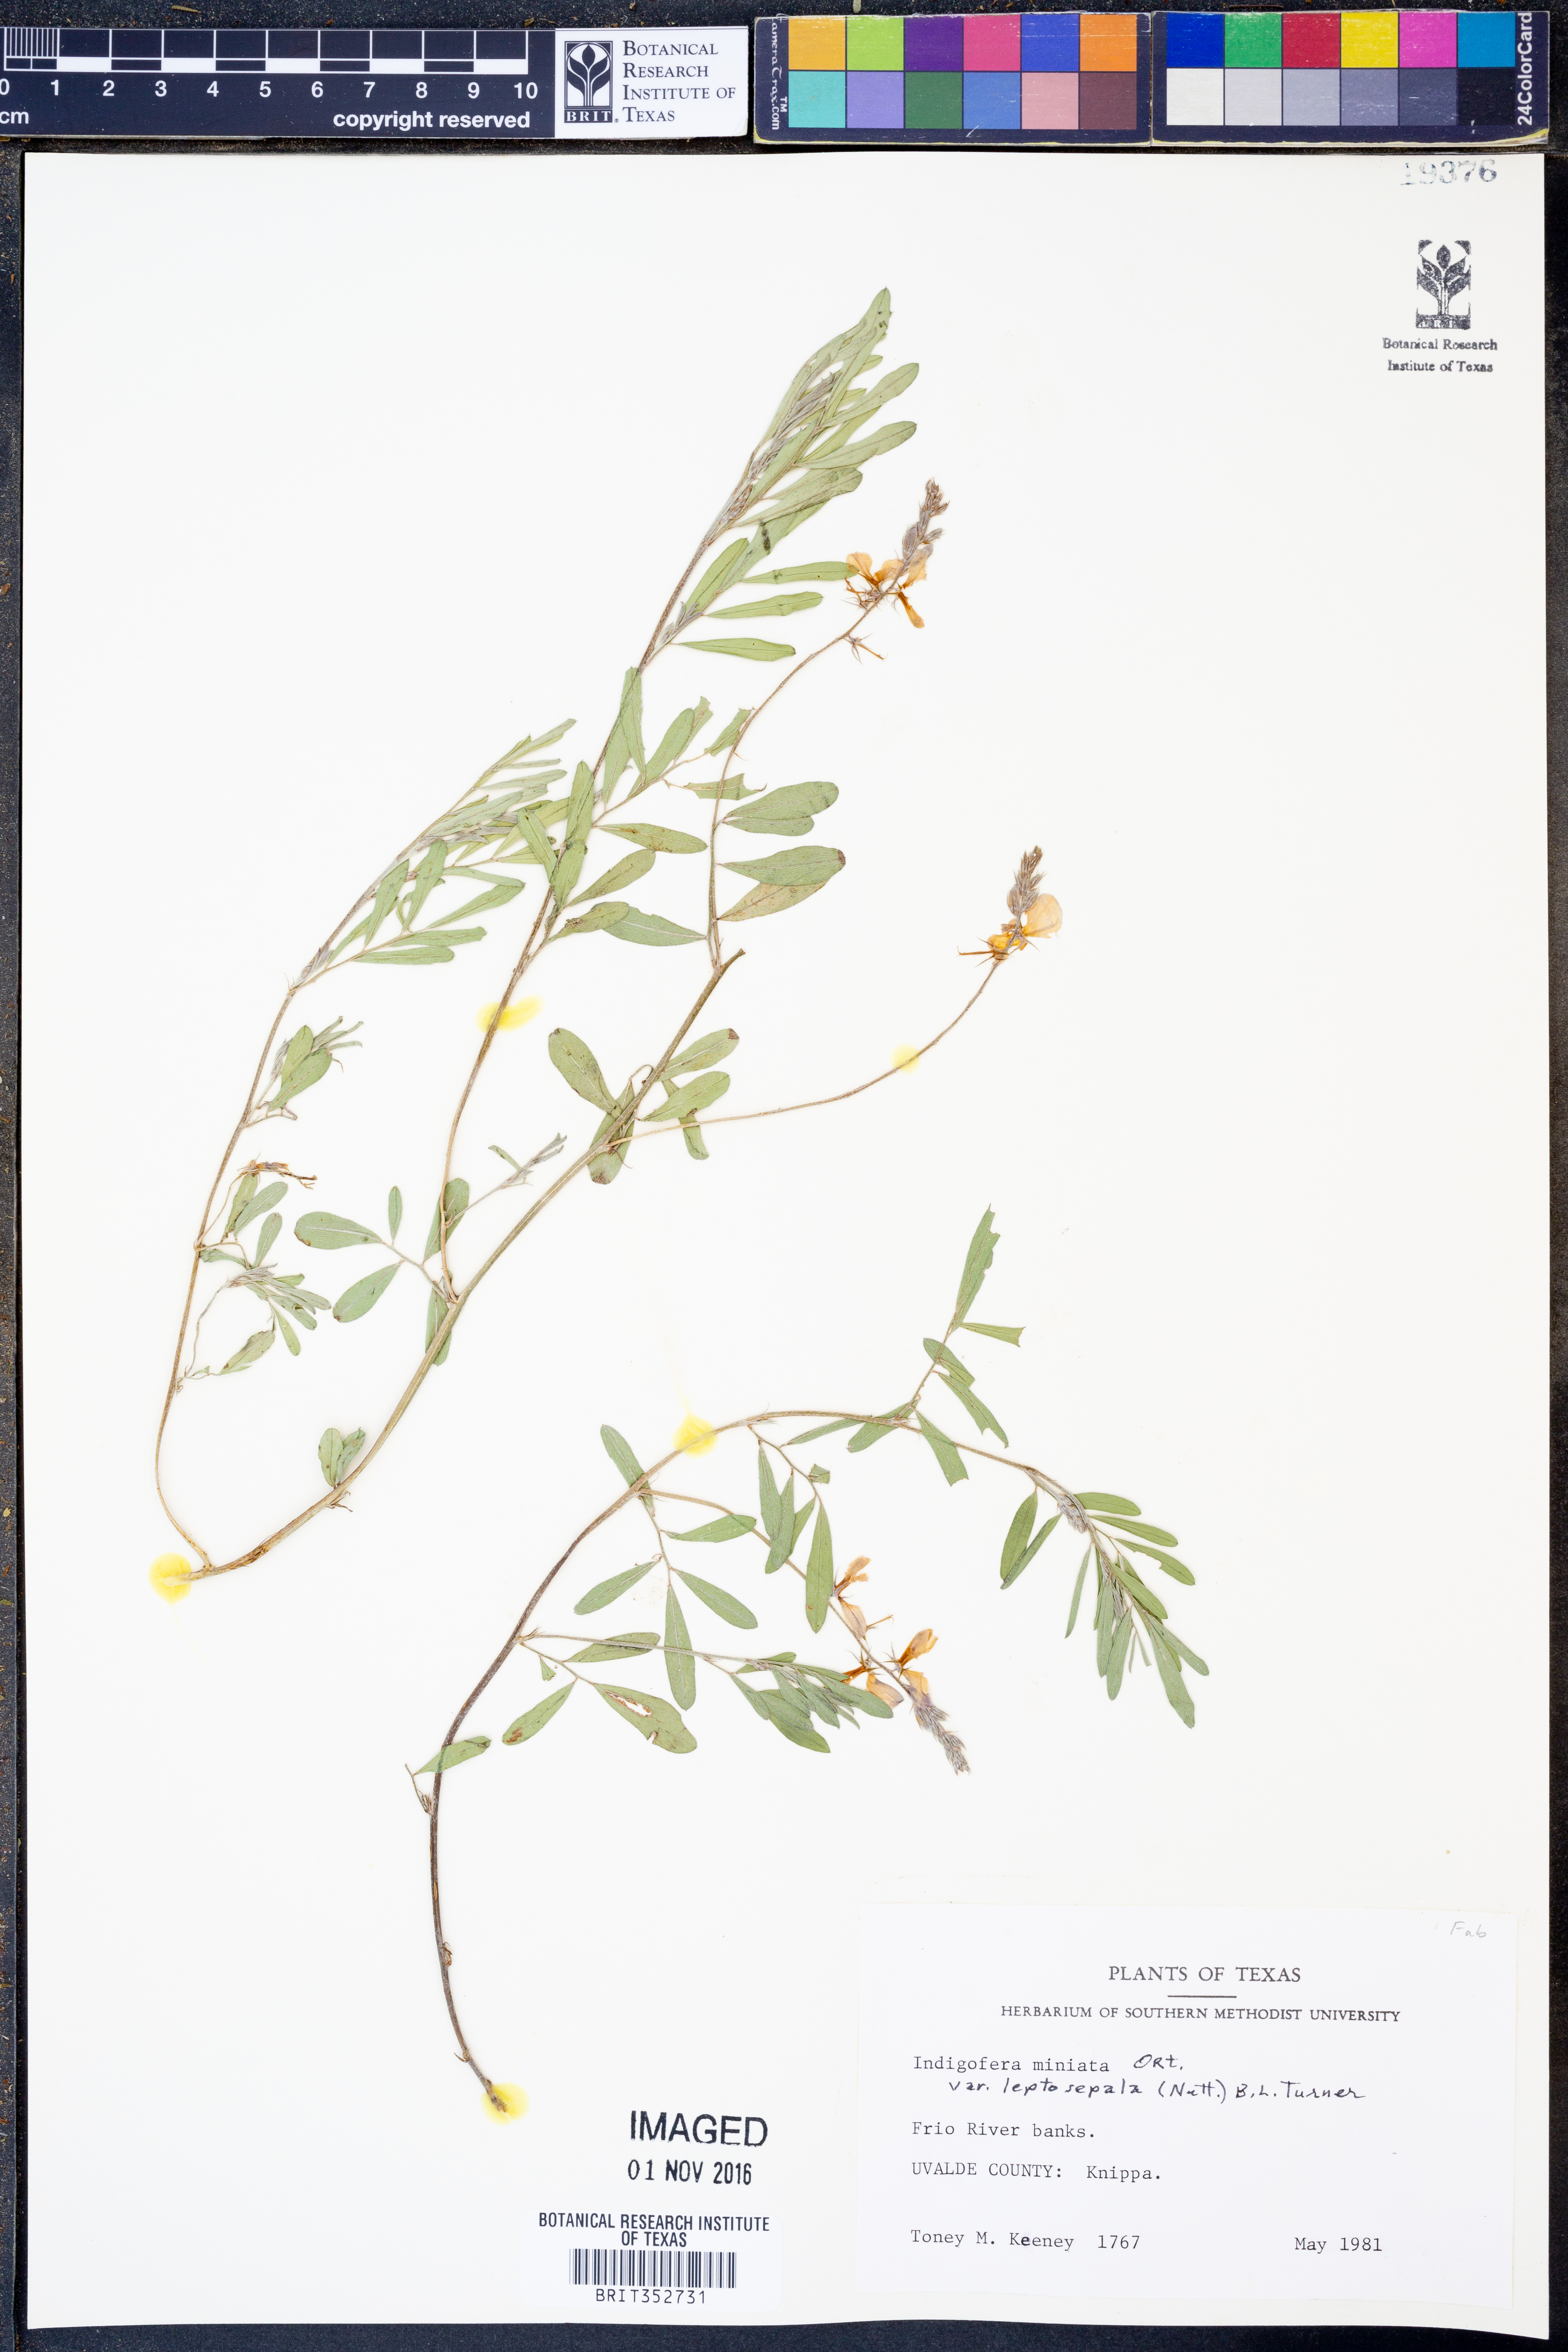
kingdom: Plantae
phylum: Tracheophyta
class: Magnoliopsida
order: Fabales
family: Fabaceae
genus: Indigofera
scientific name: Indigofera miniata
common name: Coast indigo
